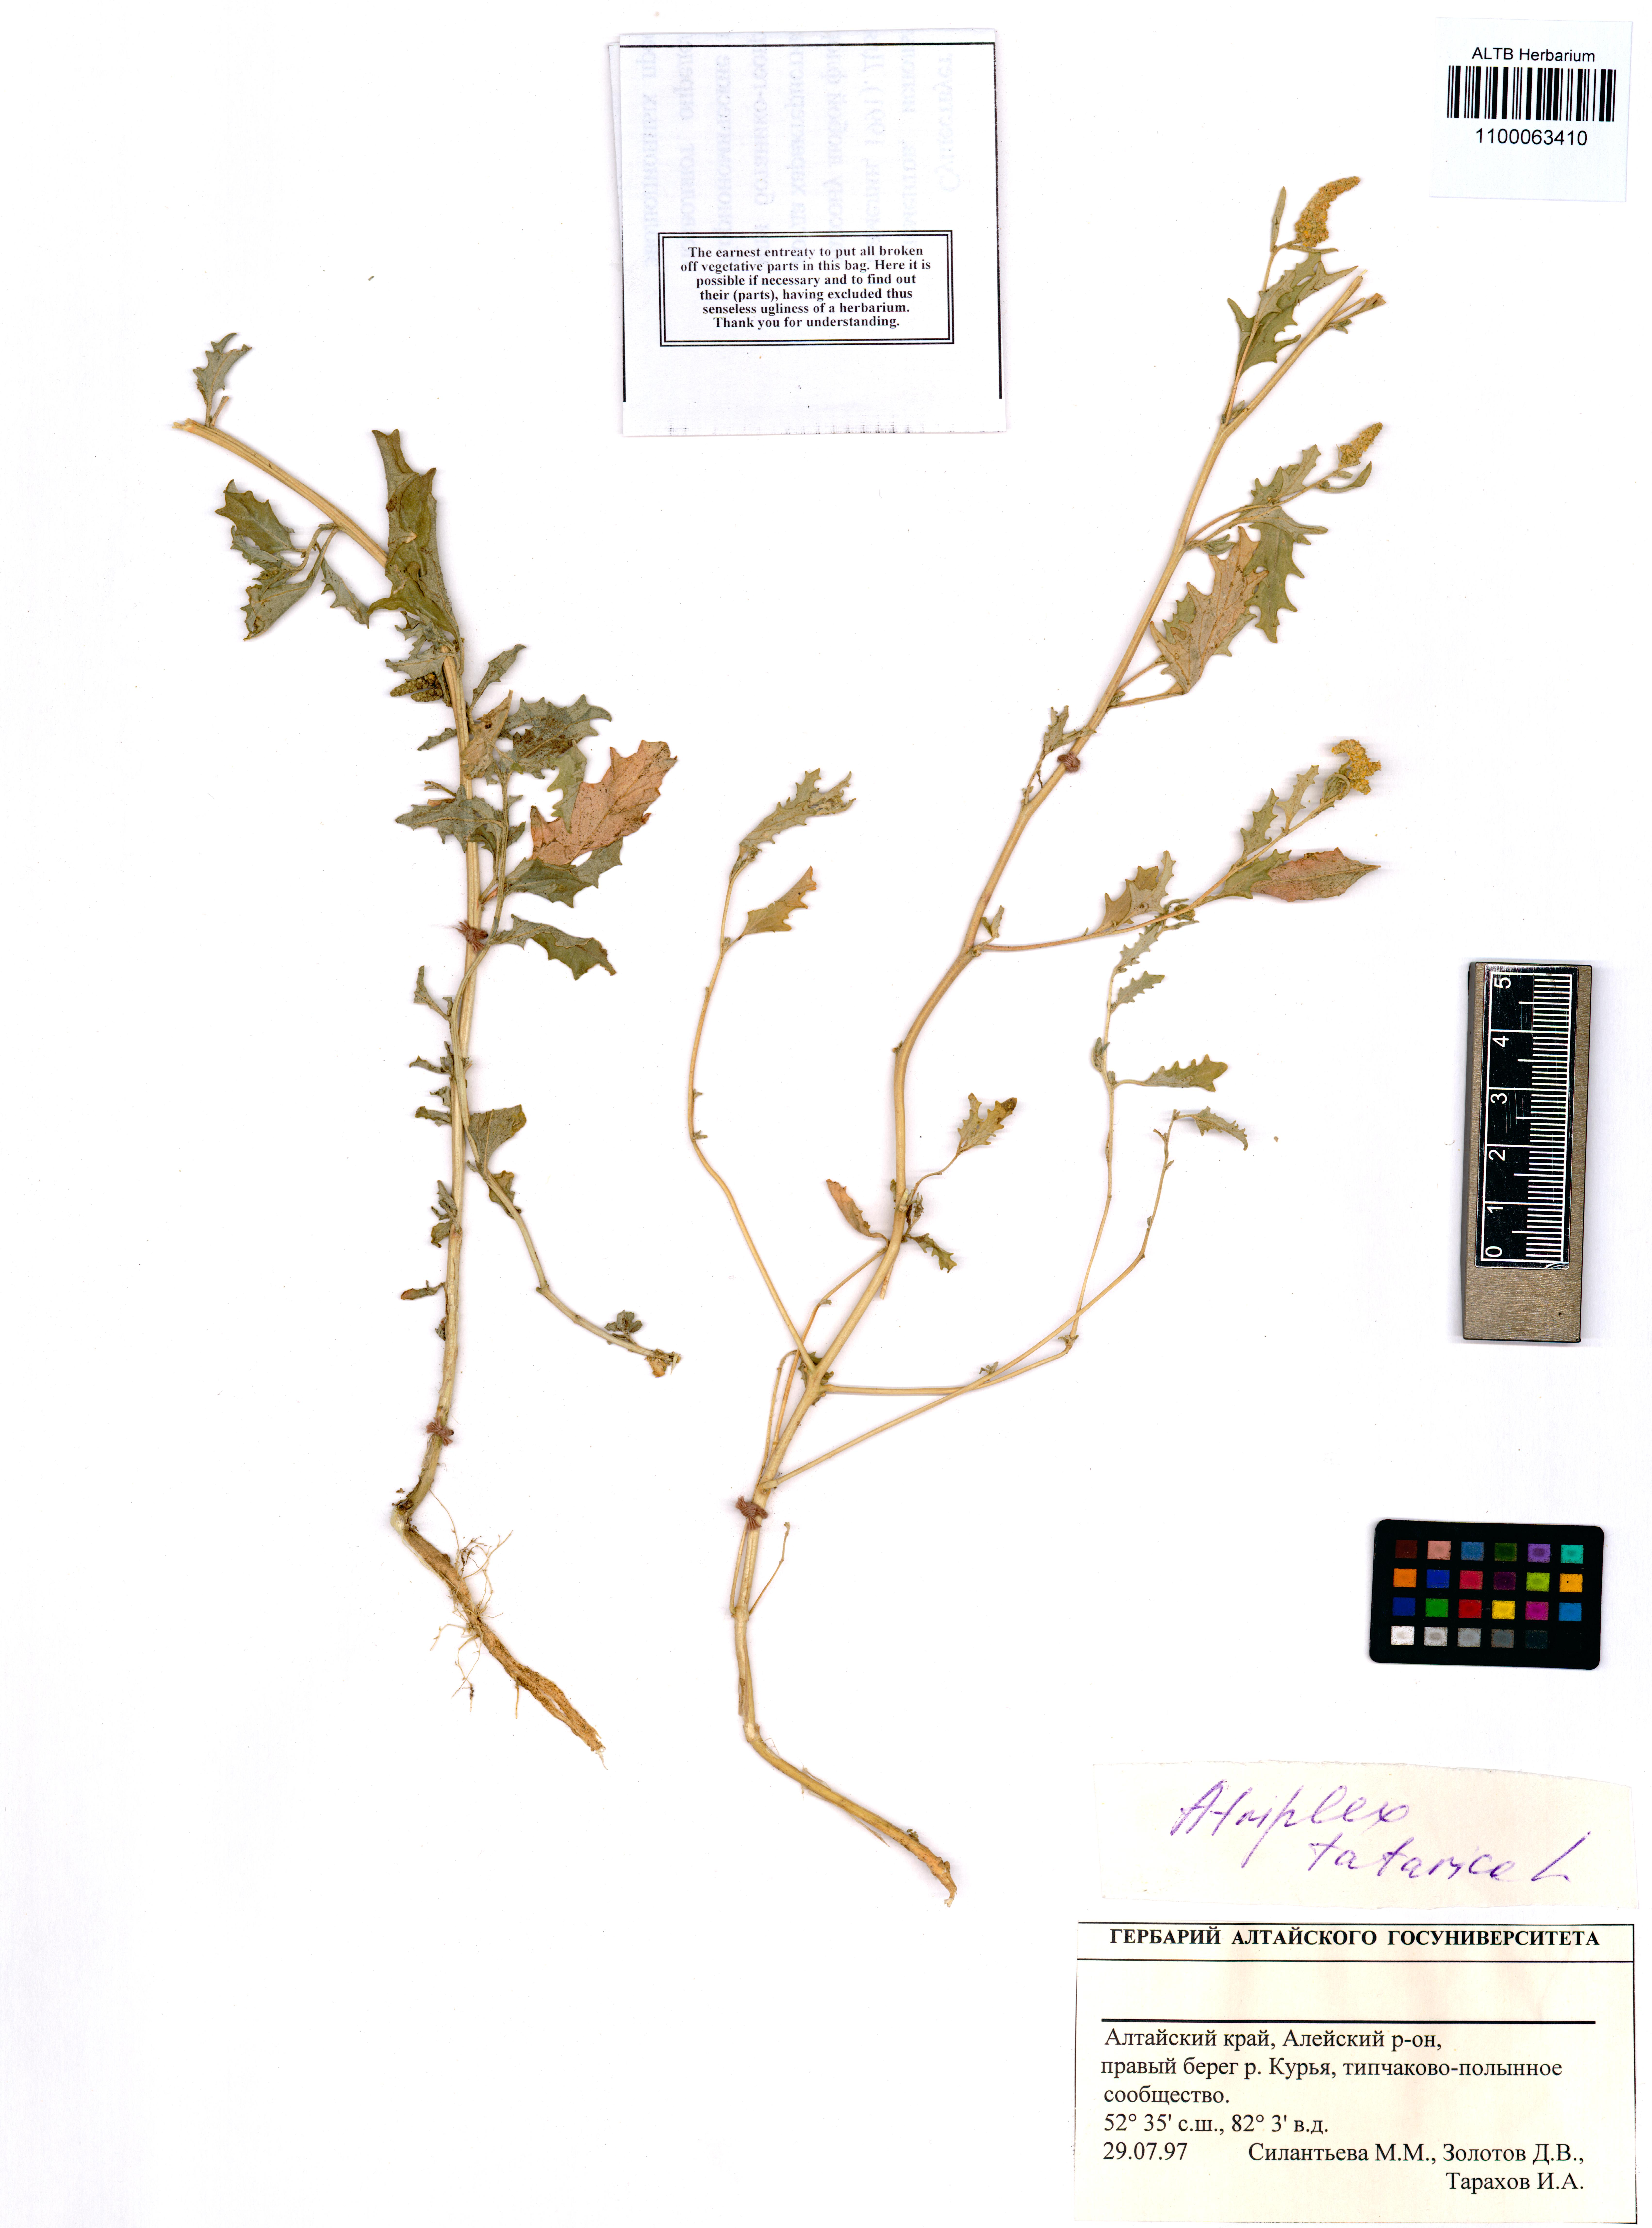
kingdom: Plantae
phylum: Tracheophyta
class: Magnoliopsida
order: Caryophyllales
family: Amaranthaceae
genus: Atriplex
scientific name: Atriplex tatarica
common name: Tatarian orache
